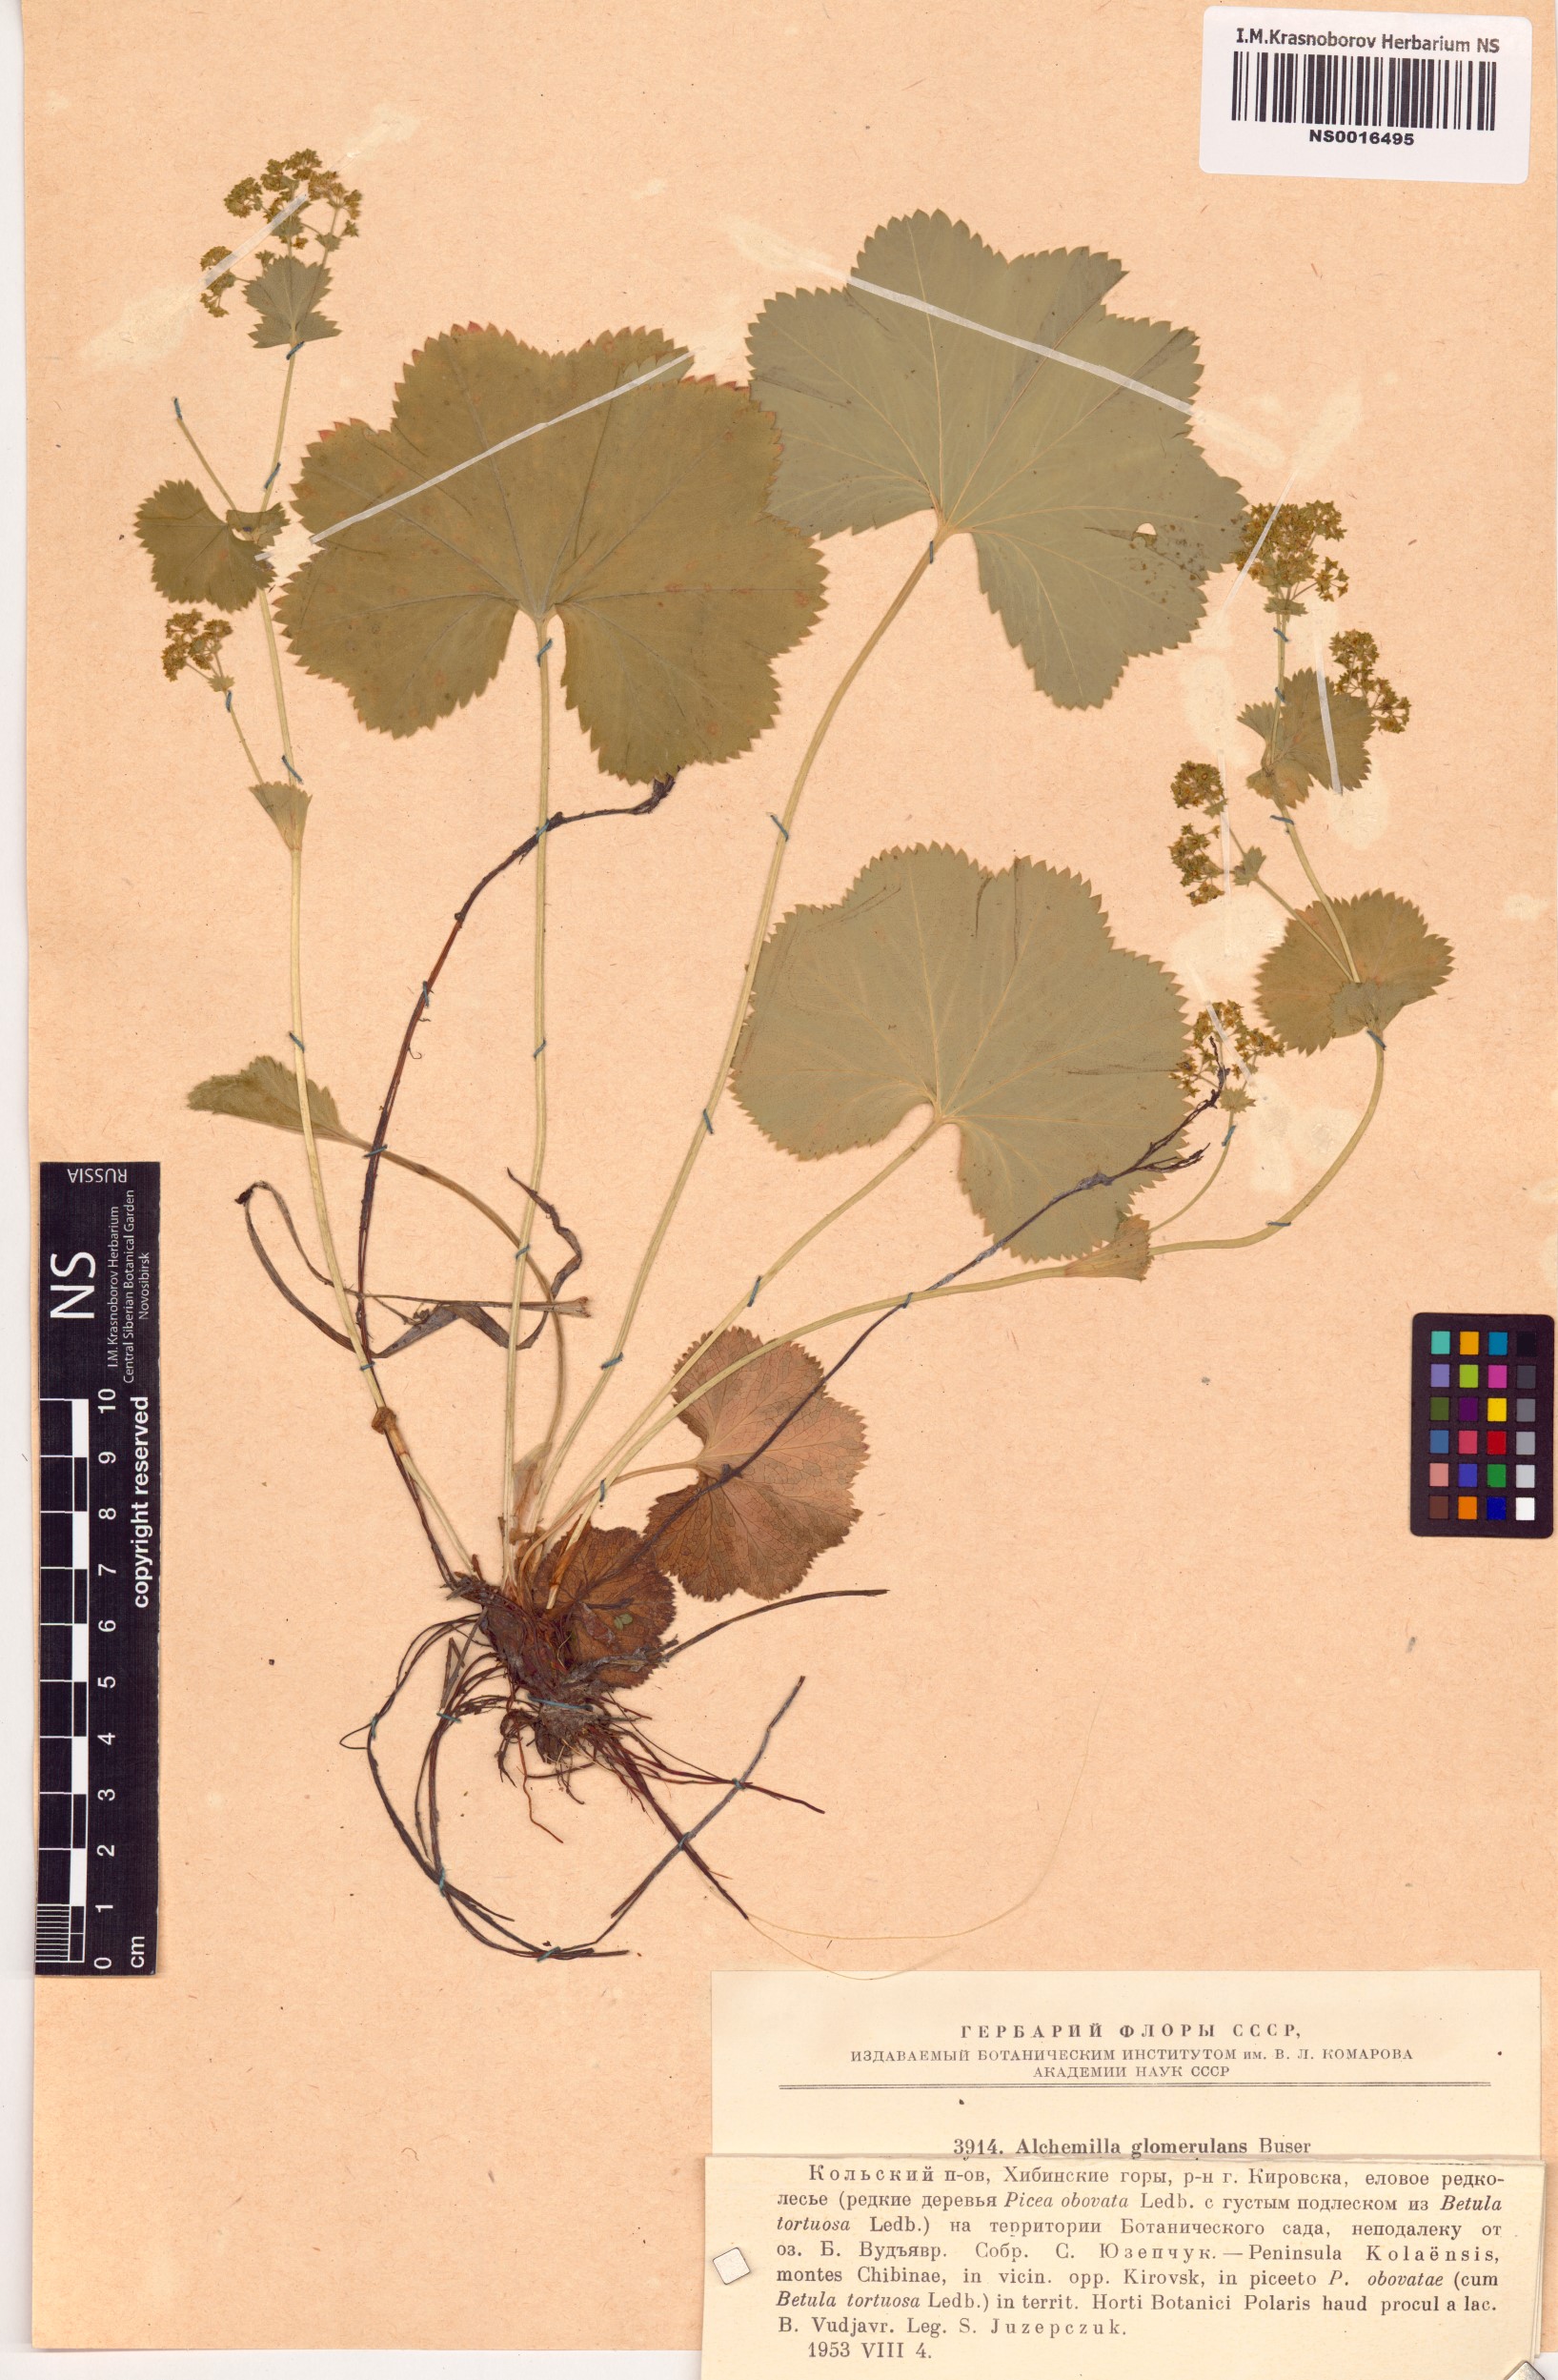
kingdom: Plantae
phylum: Tracheophyta
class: Magnoliopsida
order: Rosales
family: Rosaceae
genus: Alchemilla
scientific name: Alchemilla glomerulans
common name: Clustered lady's mantle
